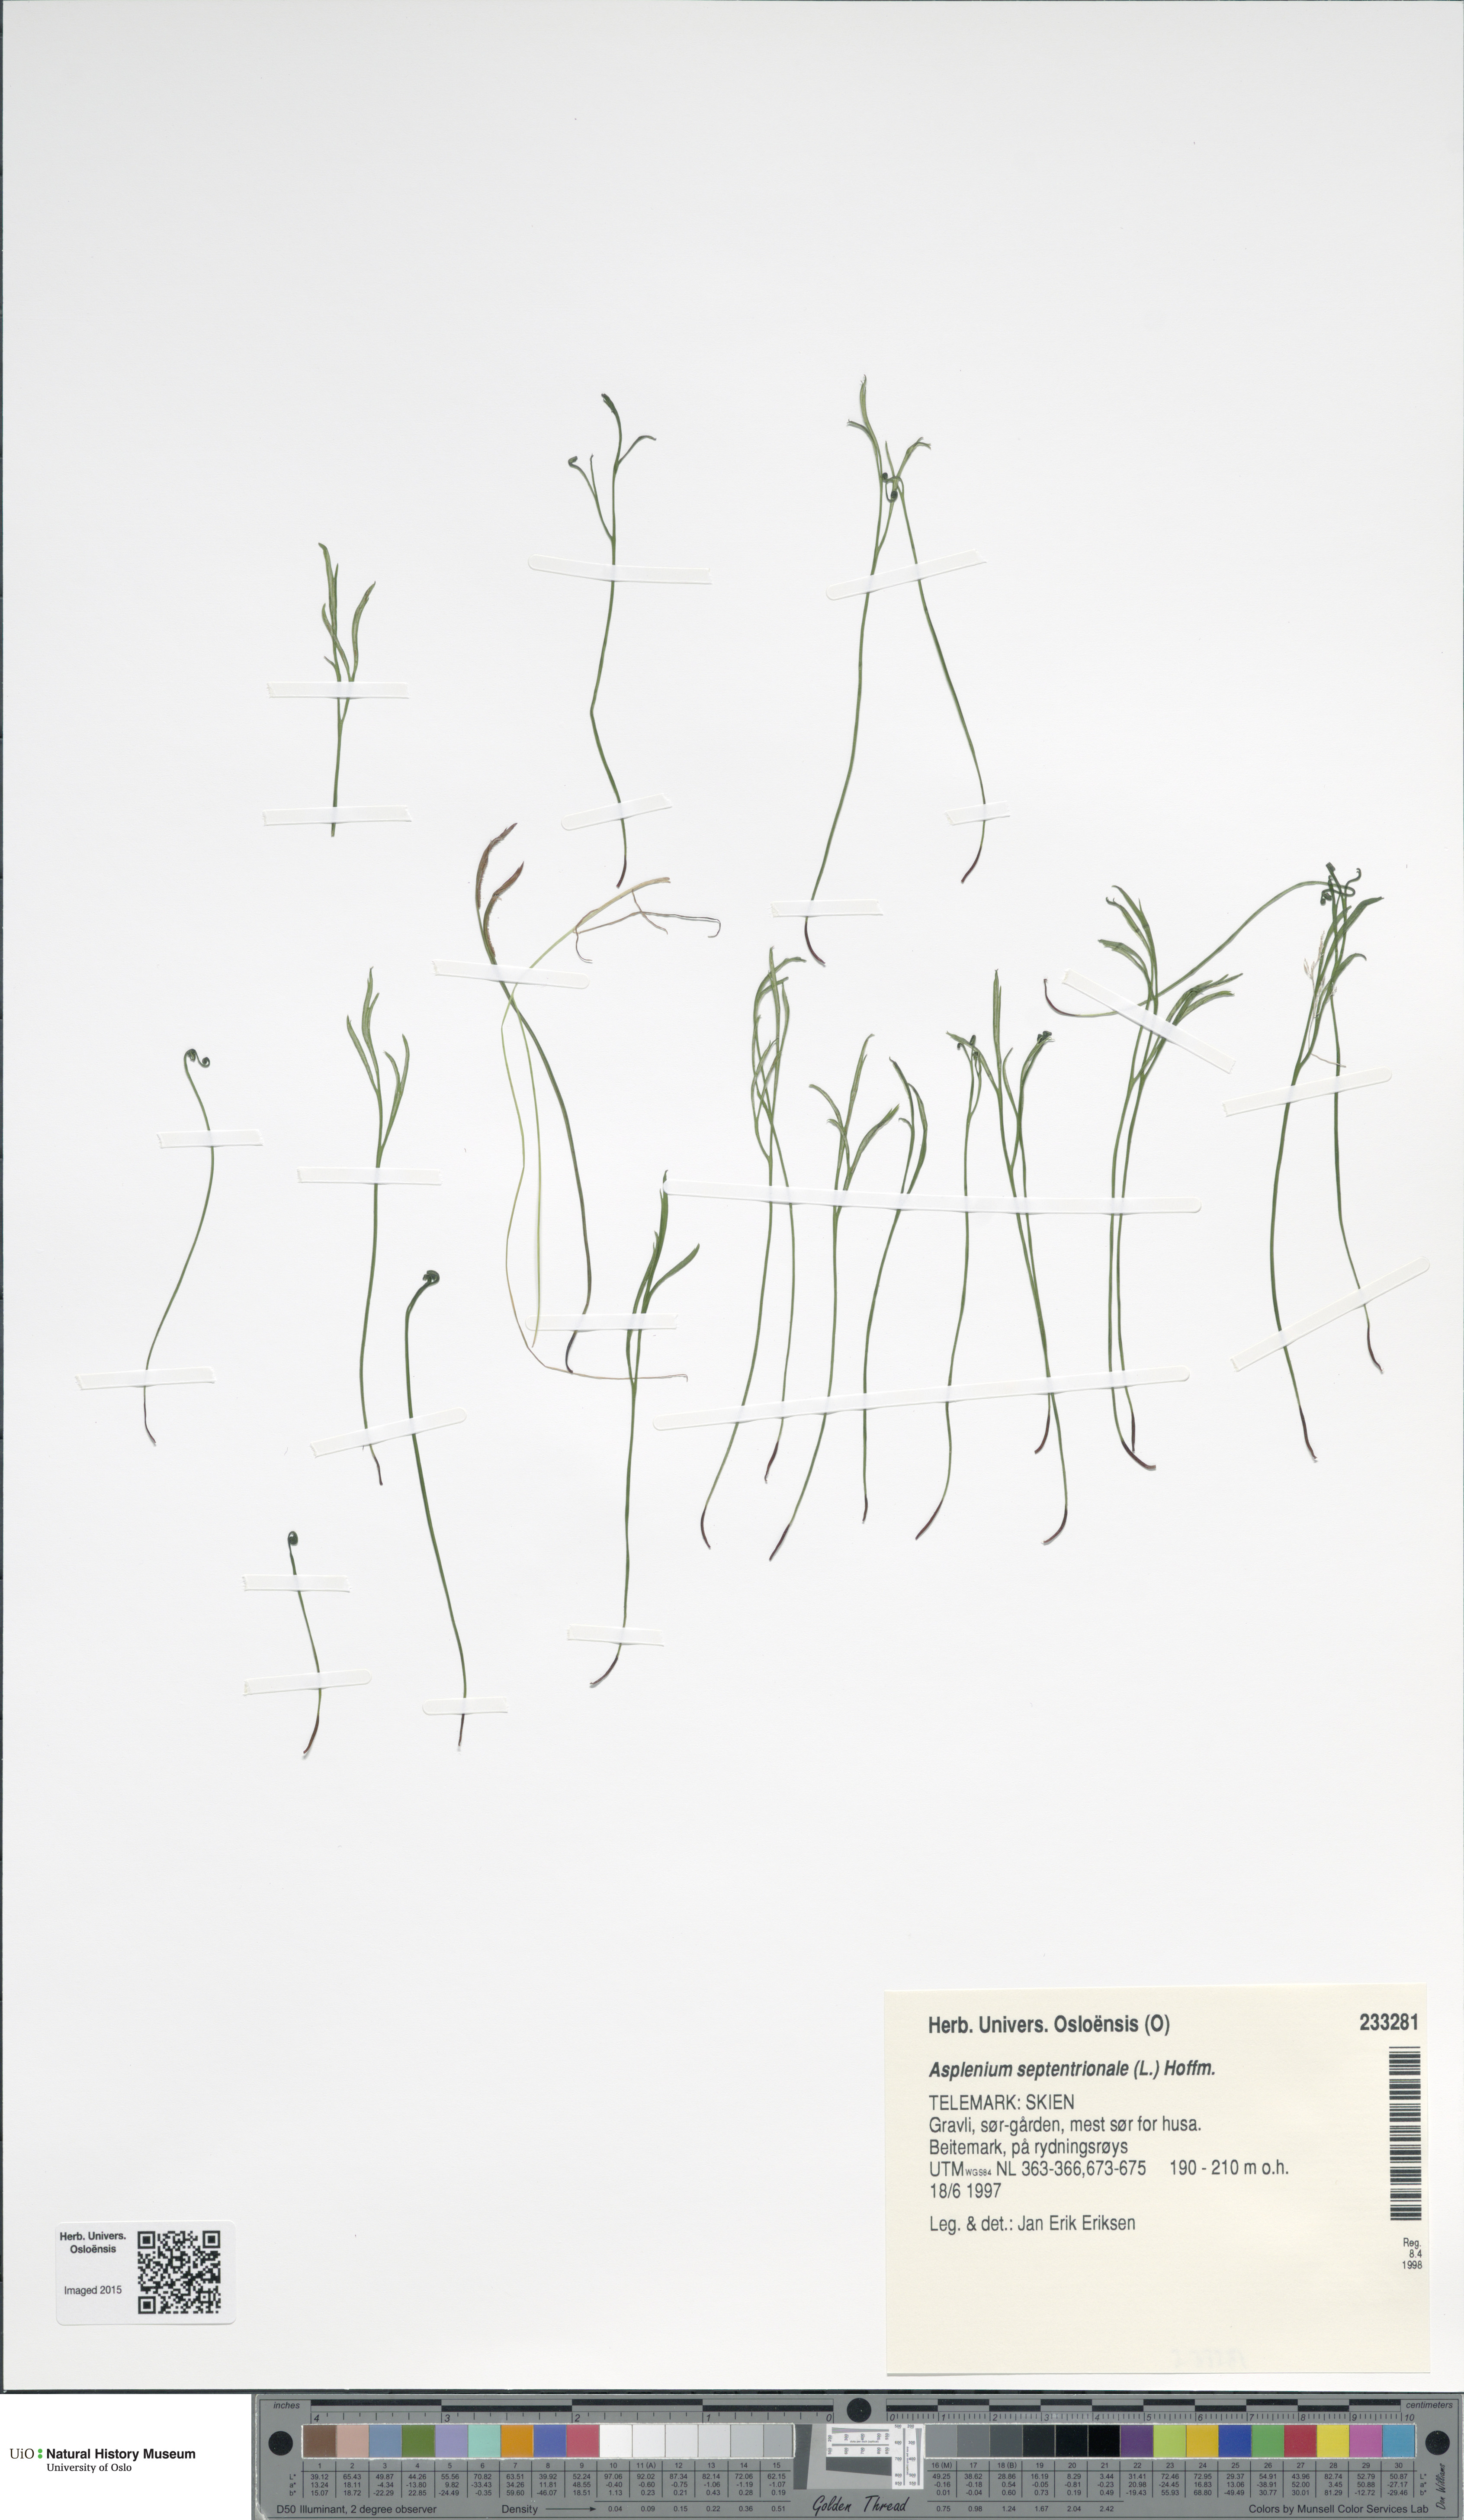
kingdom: Plantae
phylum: Tracheophyta
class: Polypodiopsida
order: Polypodiales
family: Aspleniaceae
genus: Asplenium
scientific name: Asplenium septentrionale
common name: Forked spleenwort
